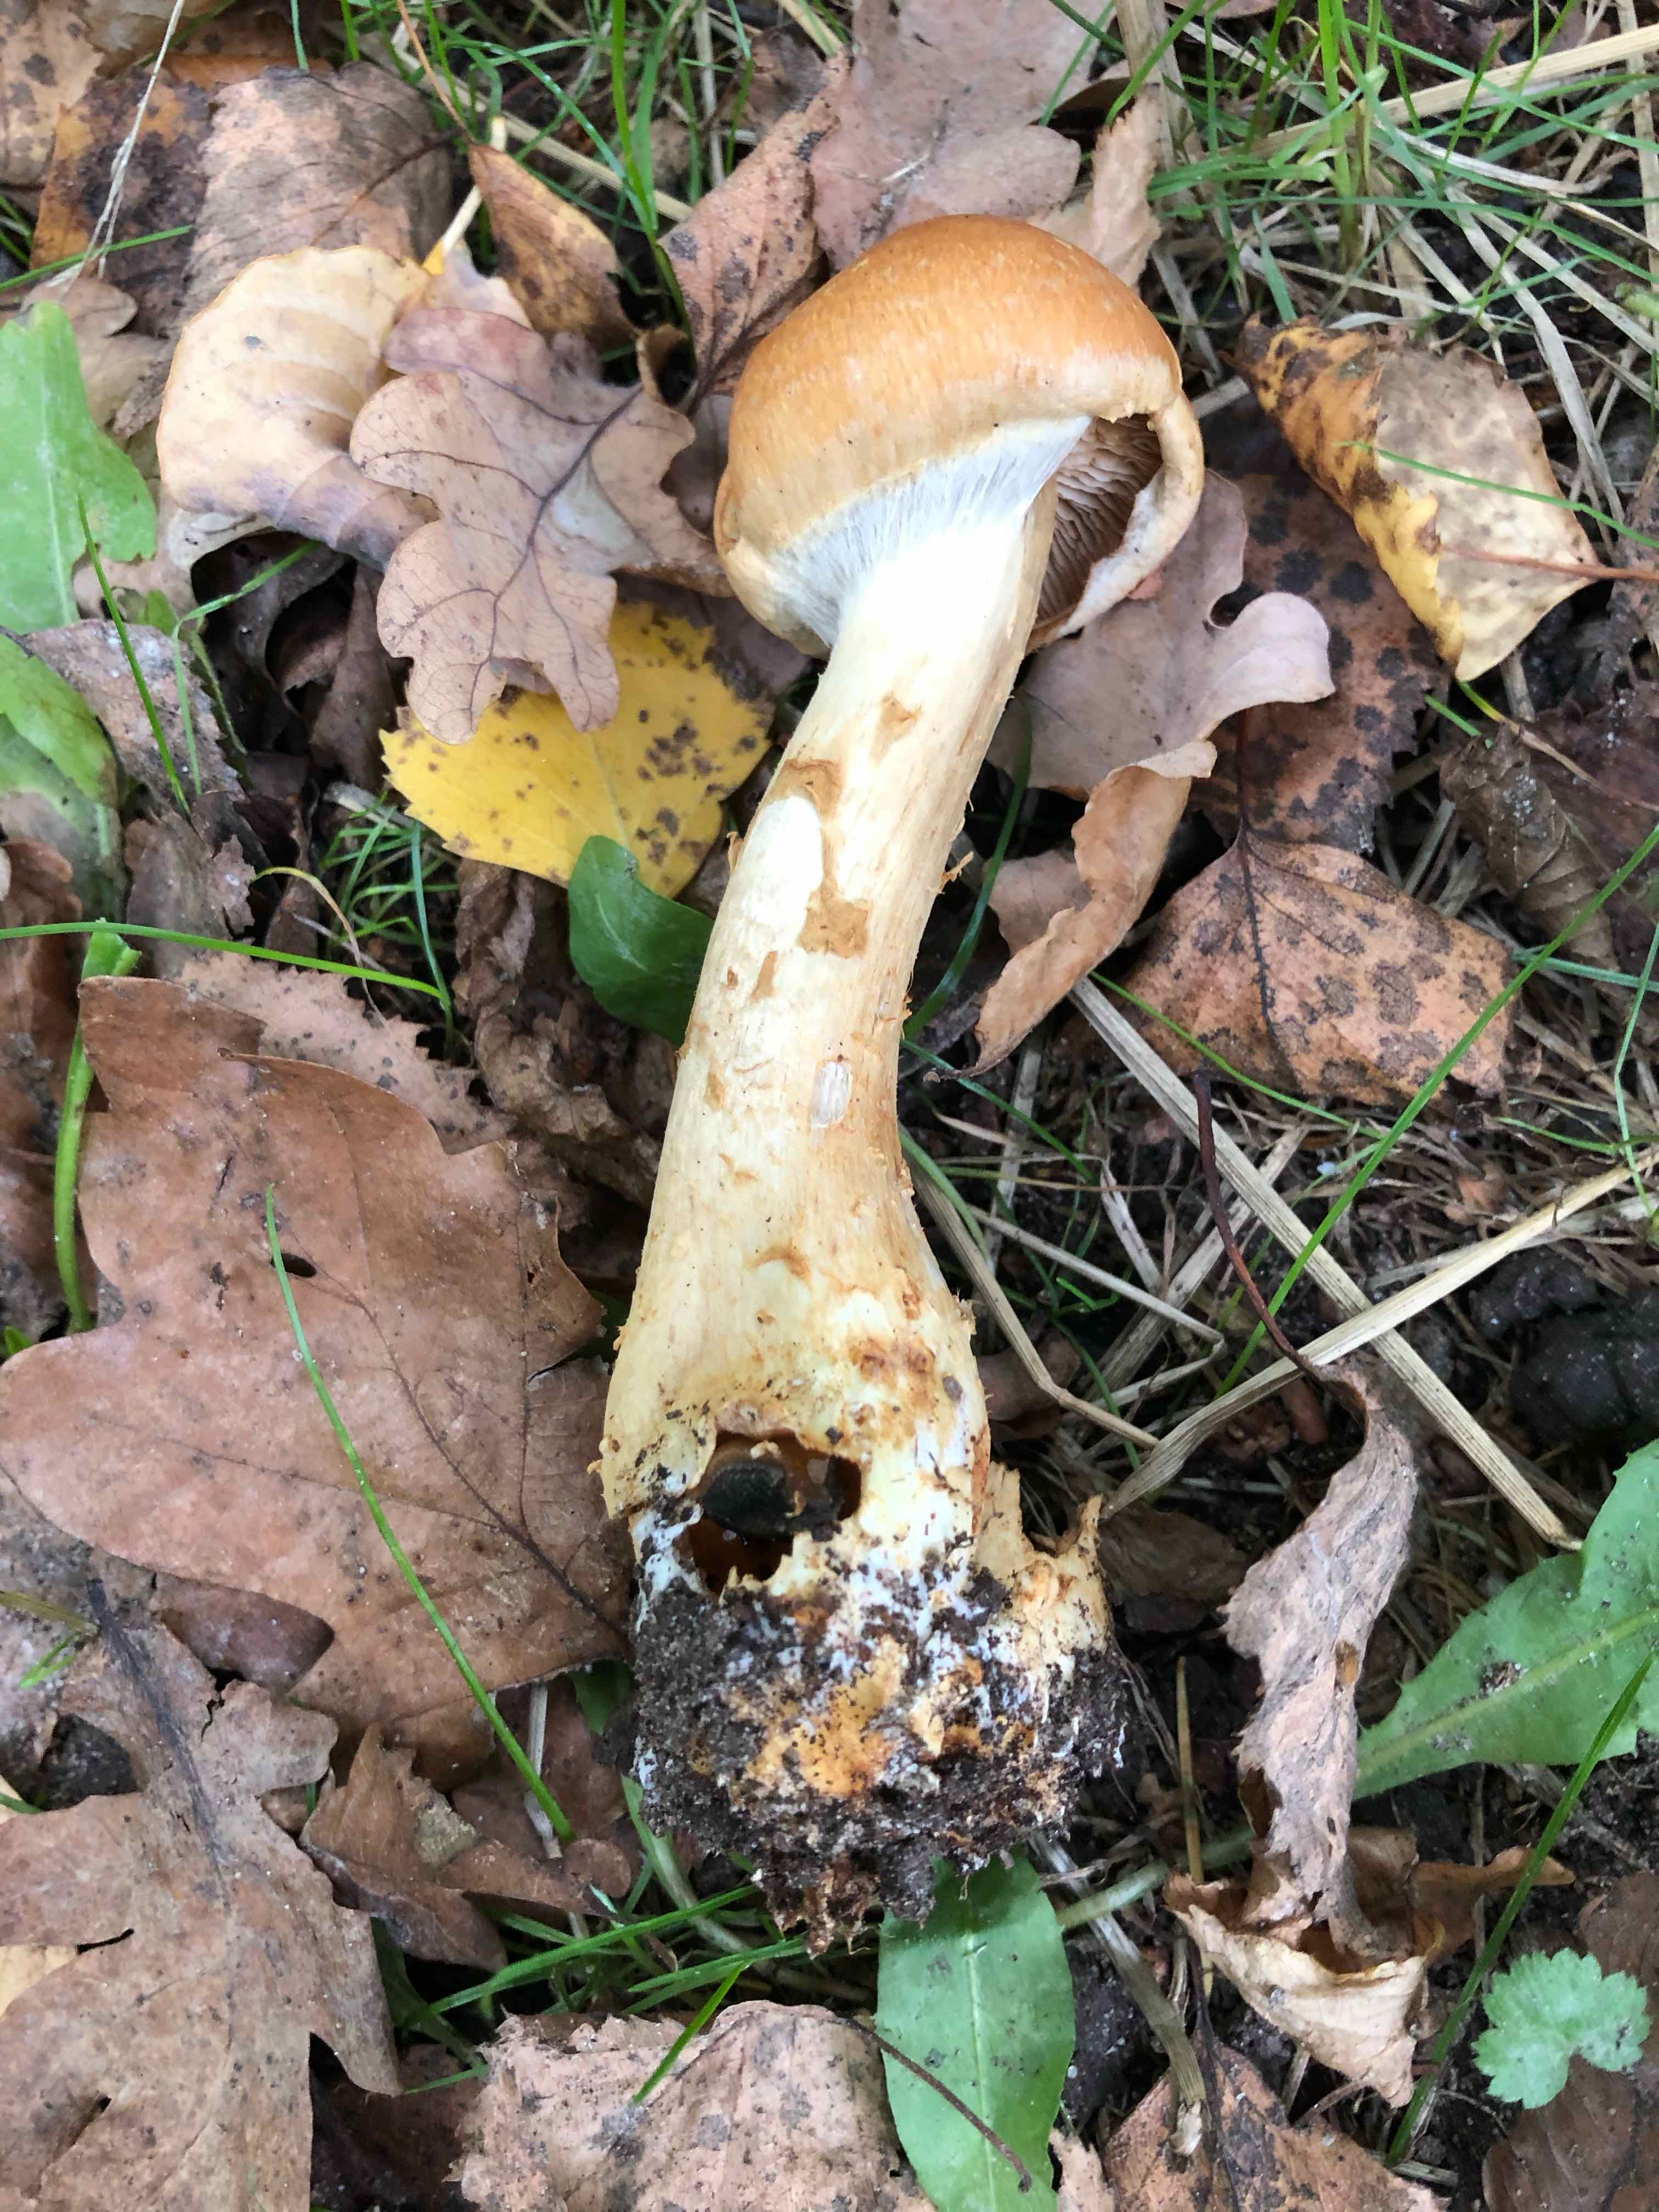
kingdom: Fungi
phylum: Basidiomycota
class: Agaricomycetes
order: Agaricales
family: Cortinariaceae
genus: Phlegmacium
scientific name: Phlegmacium triumphans
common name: gulbæltet slørhat
